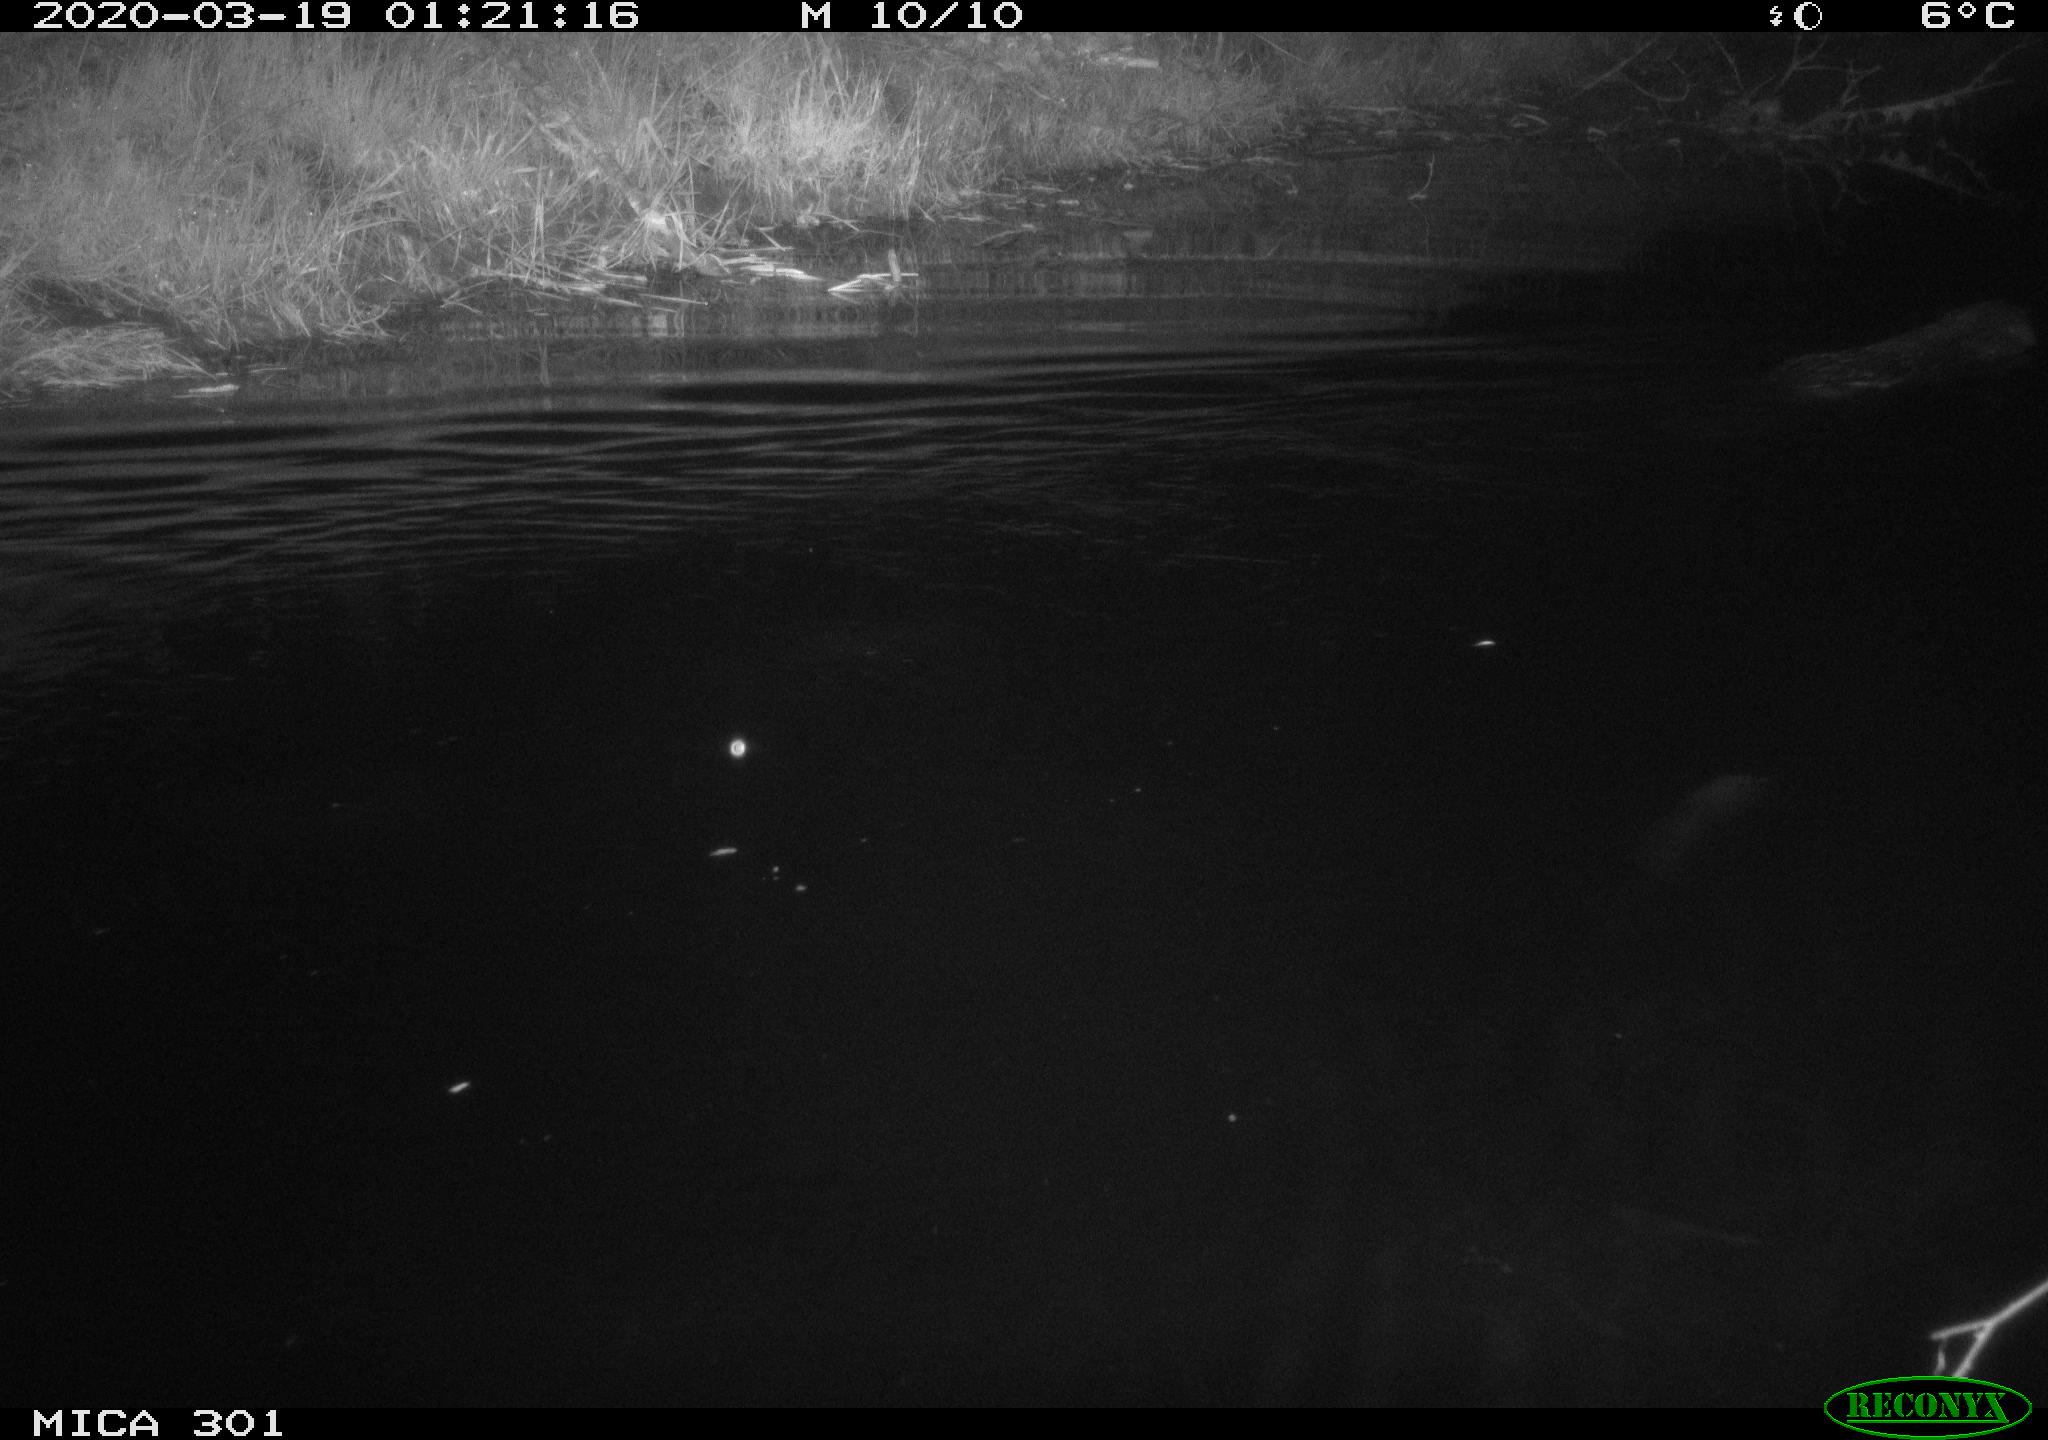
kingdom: Animalia
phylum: Chordata
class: Mammalia
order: Rodentia
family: Castoridae
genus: Castor
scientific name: Castor fiber
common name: Eurasian beaver
